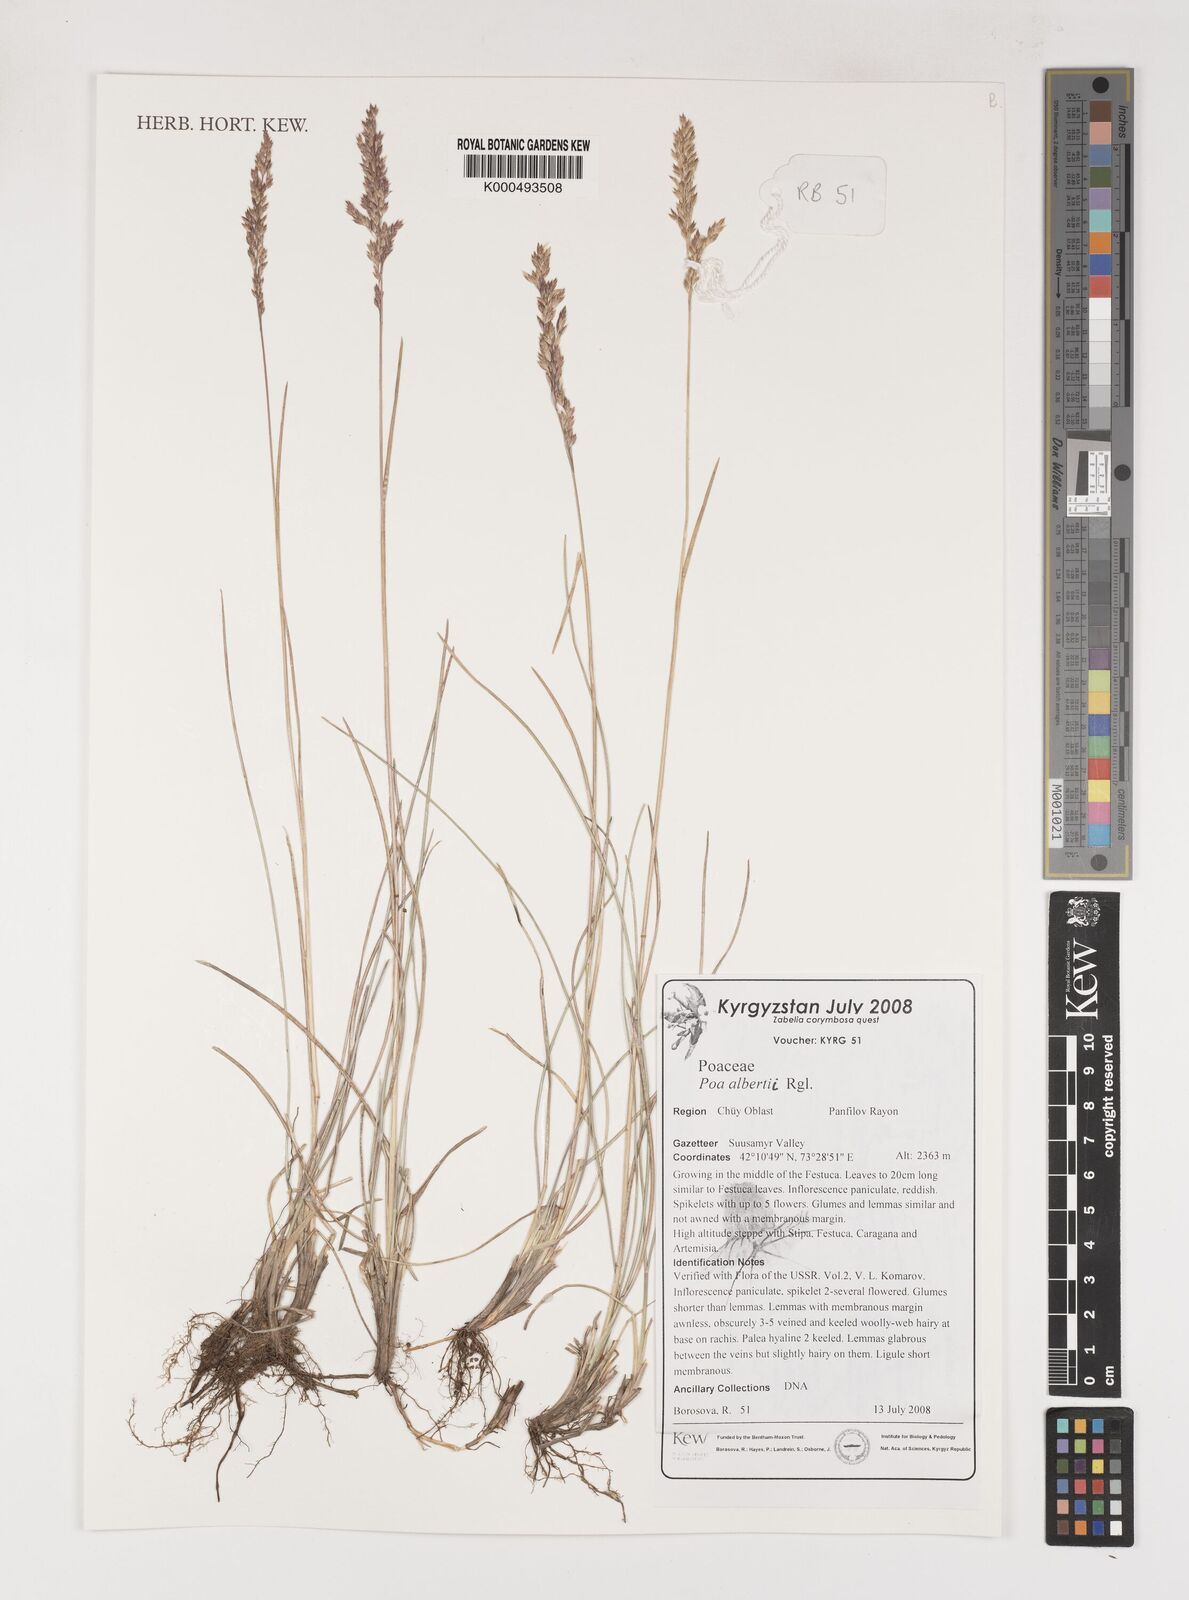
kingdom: Plantae
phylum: Tracheophyta
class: Liliopsida
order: Poales
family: Poaceae
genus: Poa
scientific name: Poa alberti
